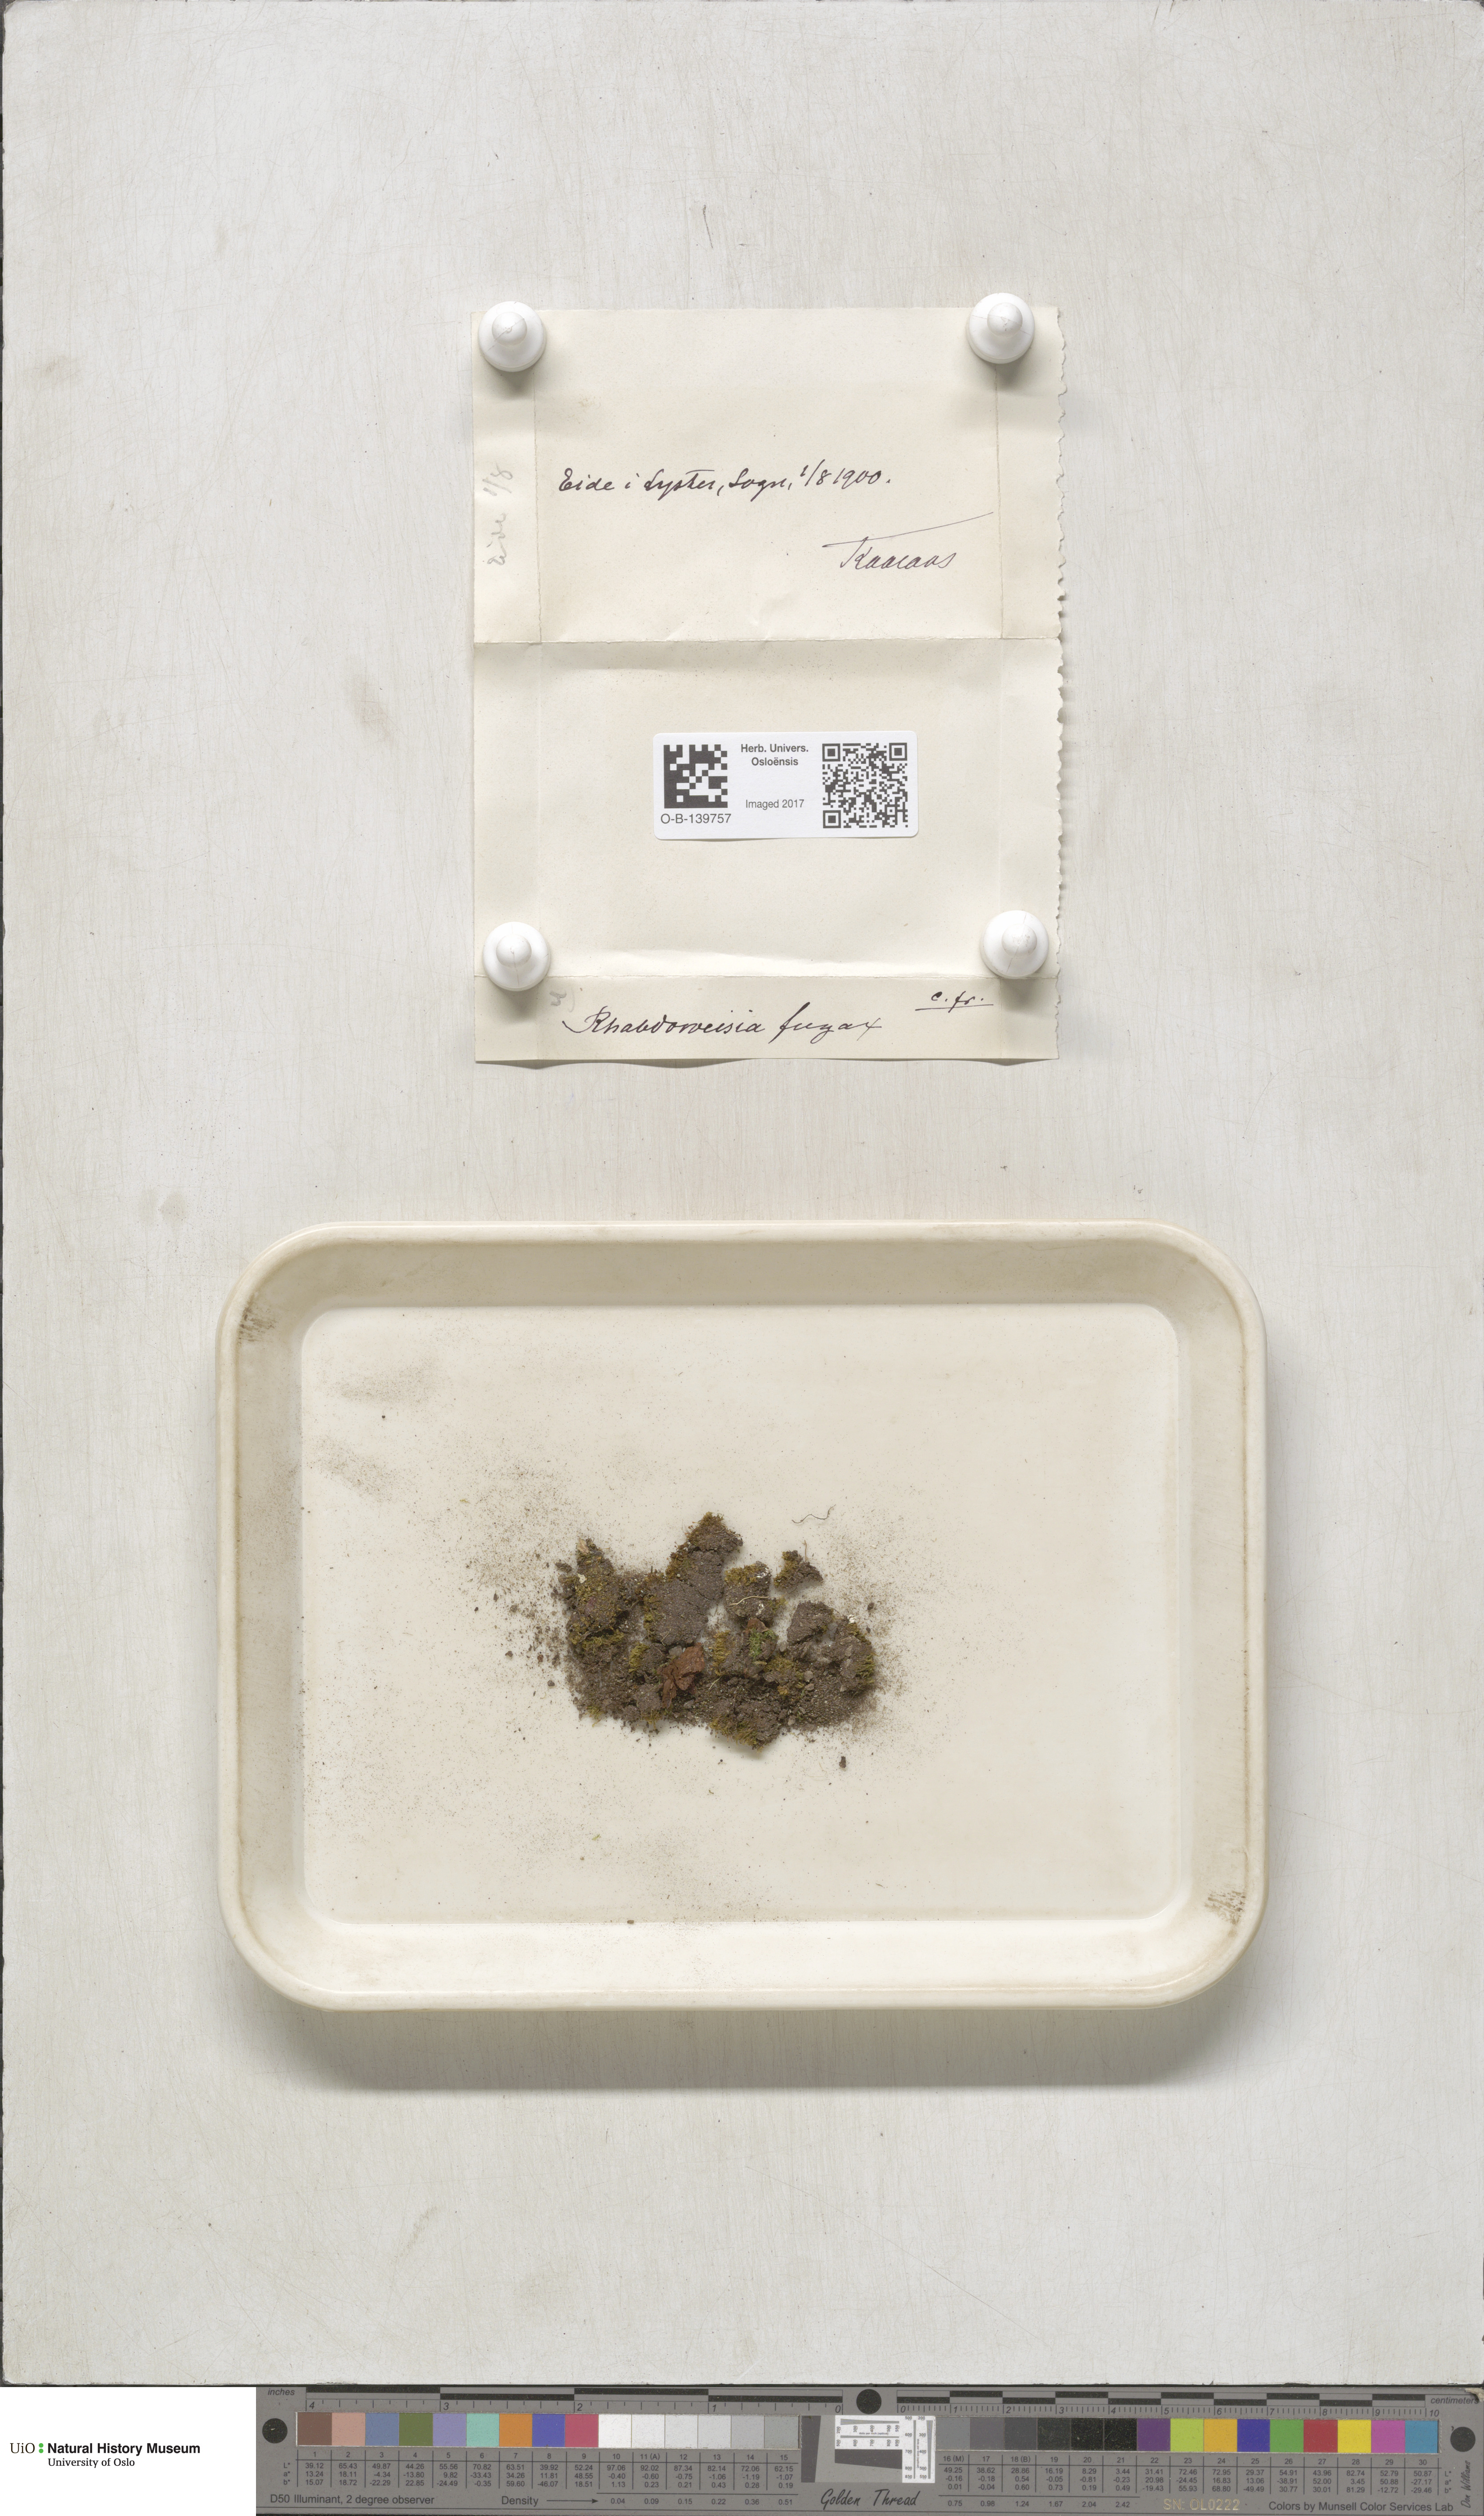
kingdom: Plantae
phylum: Bryophyta
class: Bryopsida
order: Dicranales
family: Rhabdoweisiaceae
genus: Rhabdoweisia
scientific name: Rhabdoweisia fugax
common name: Dwarf streak-moss
